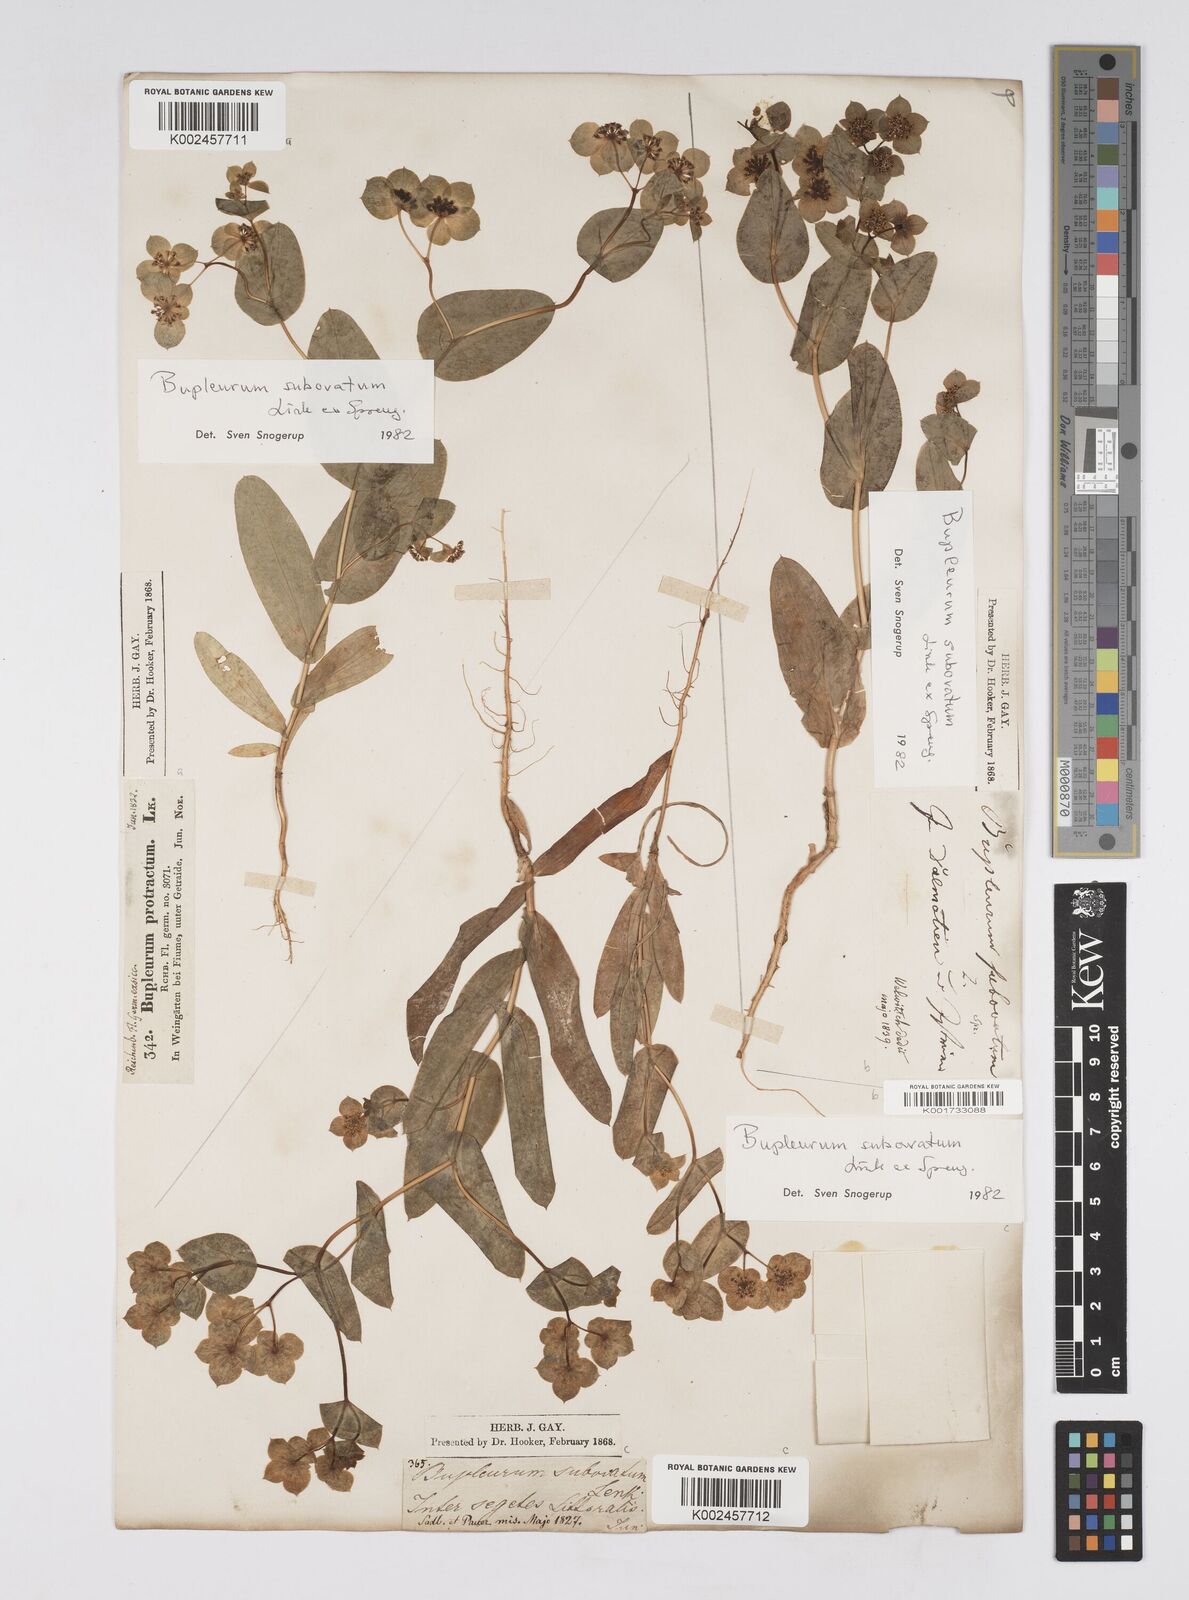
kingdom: Plantae
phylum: Tracheophyta
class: Magnoliopsida
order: Apiales
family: Apiaceae
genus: Bupleurum
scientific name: Bupleurum lancifolium
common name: False thorow-wax
